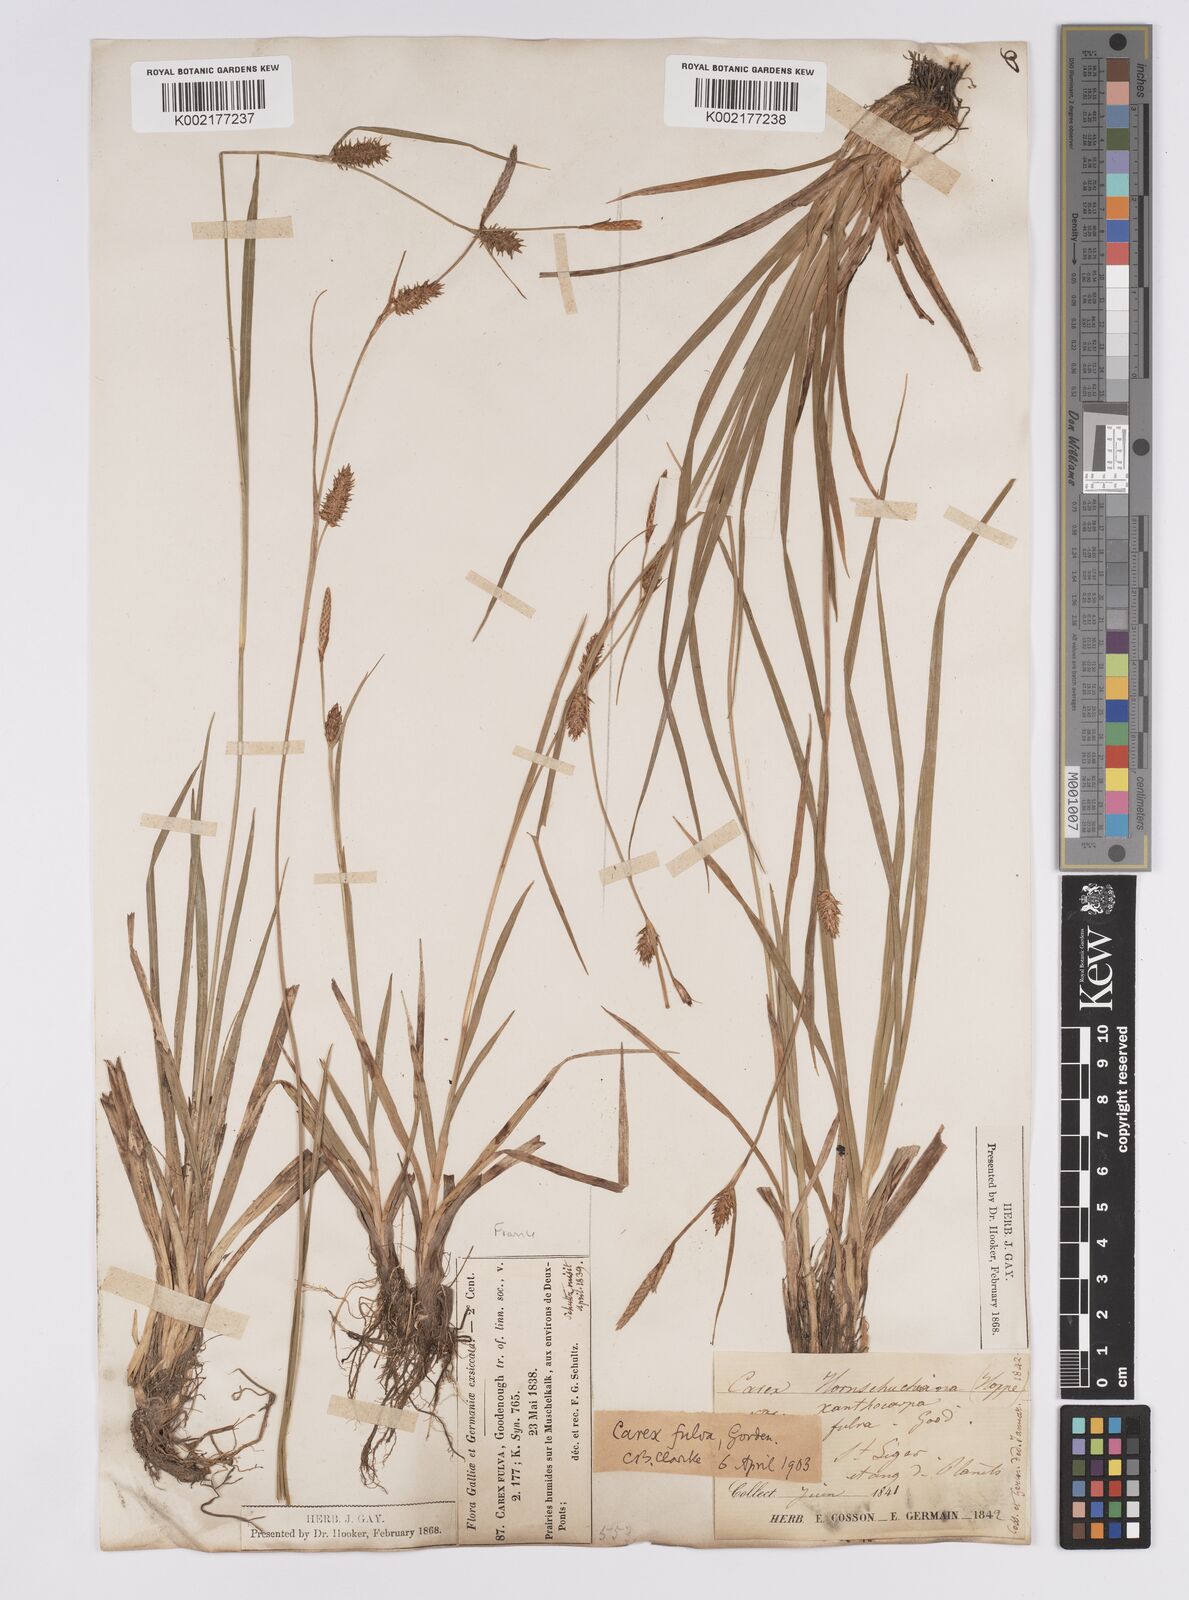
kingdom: Plantae
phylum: Tracheophyta
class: Liliopsida
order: Poales
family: Cyperaceae
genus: Carex
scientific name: Carex hostiana
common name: Tawny sedge
